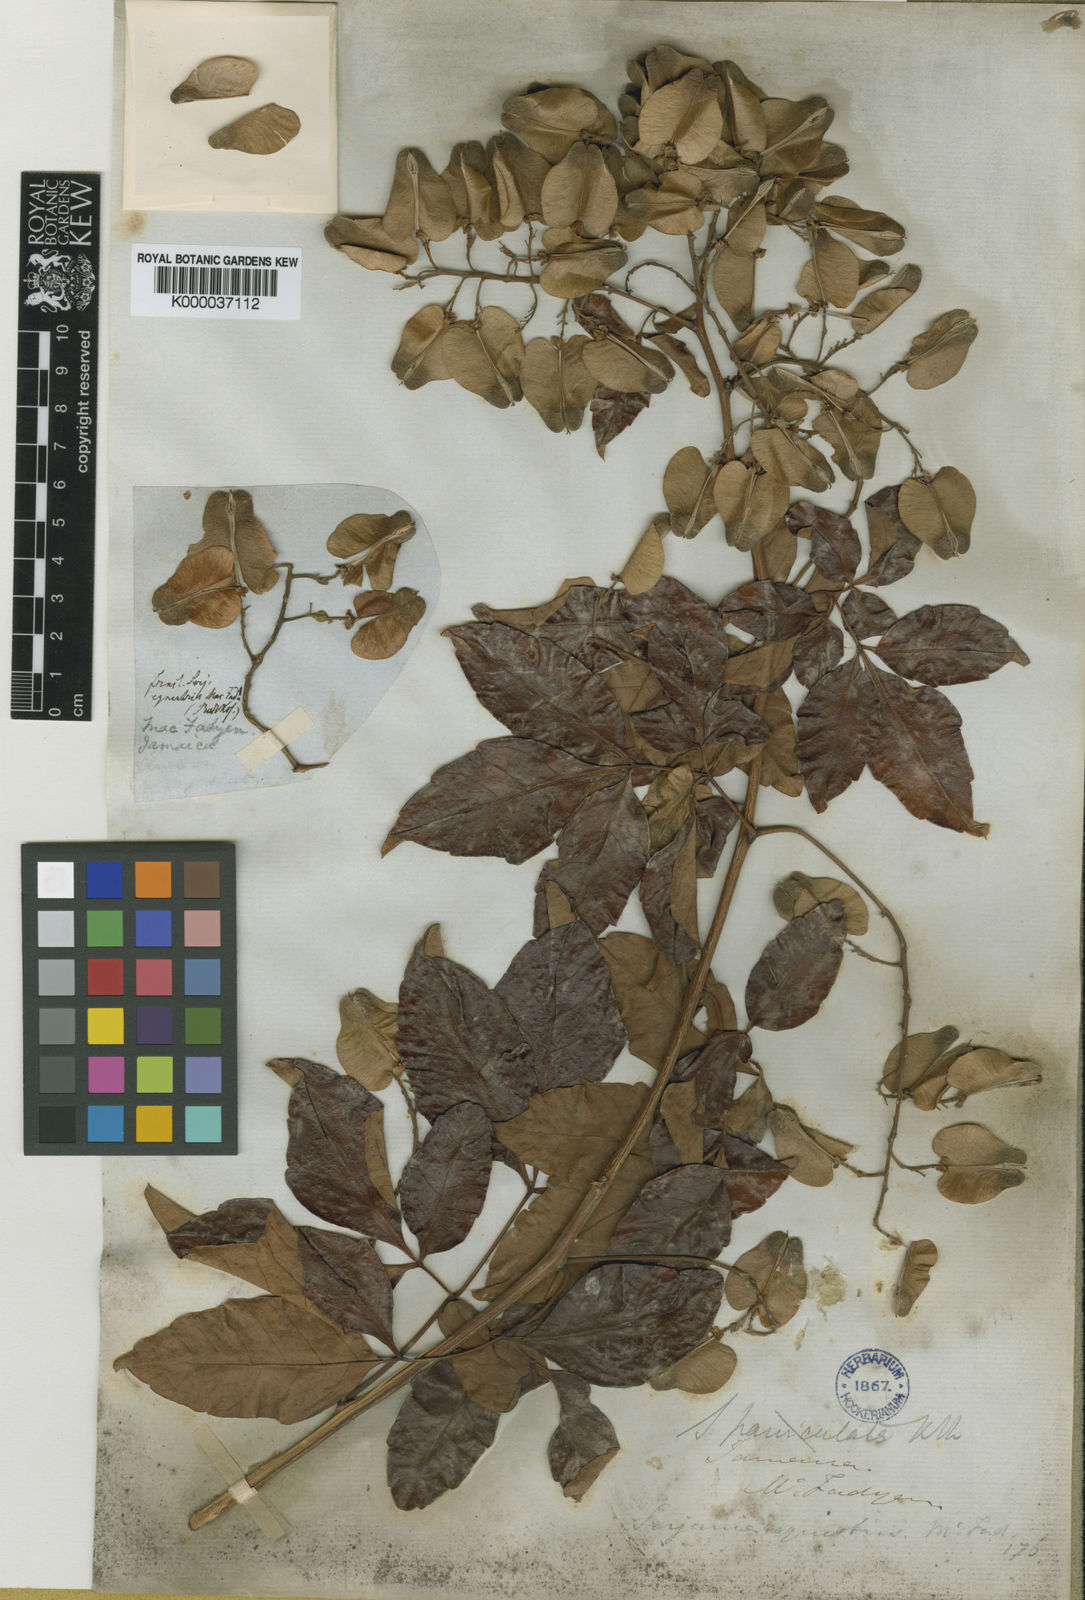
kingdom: Plantae
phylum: Tracheophyta
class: Magnoliopsida
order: Sapindales
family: Sapindaceae
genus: Serjania
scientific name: Serjania equestris
